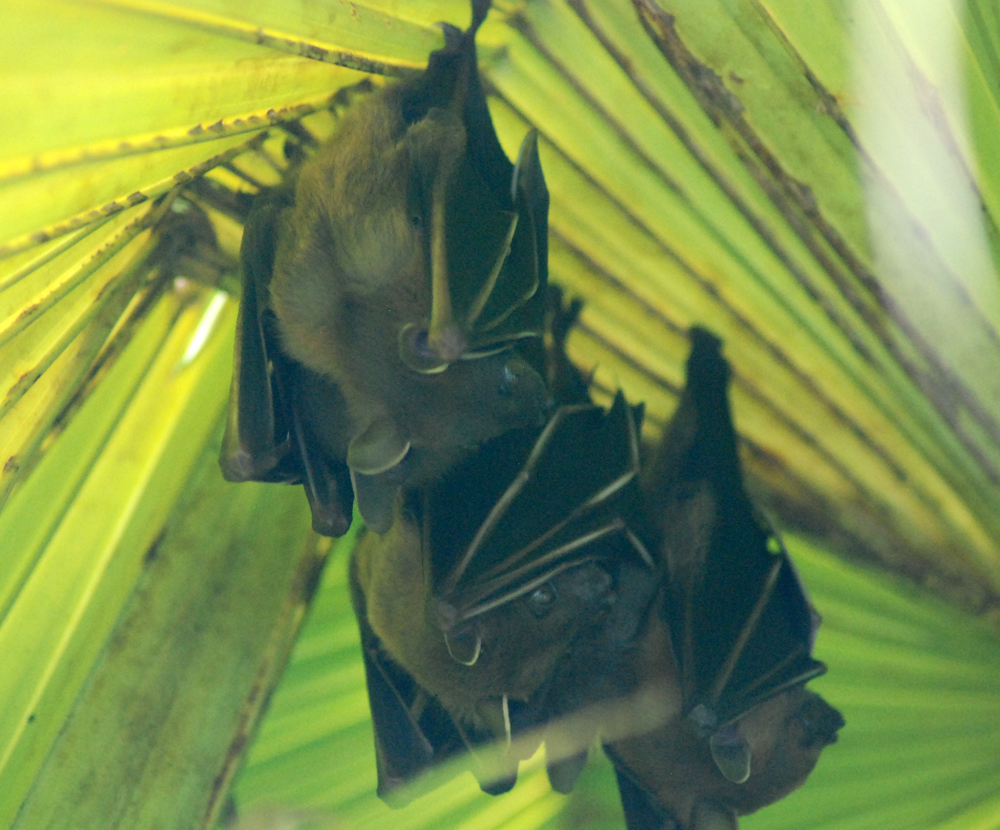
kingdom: Animalia
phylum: Chordata
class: Mammalia
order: Chiroptera
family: Pteropodidae
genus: Cynopterus
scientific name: Cynopterus brachyotis
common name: Lesser short-nosed fruit bat
